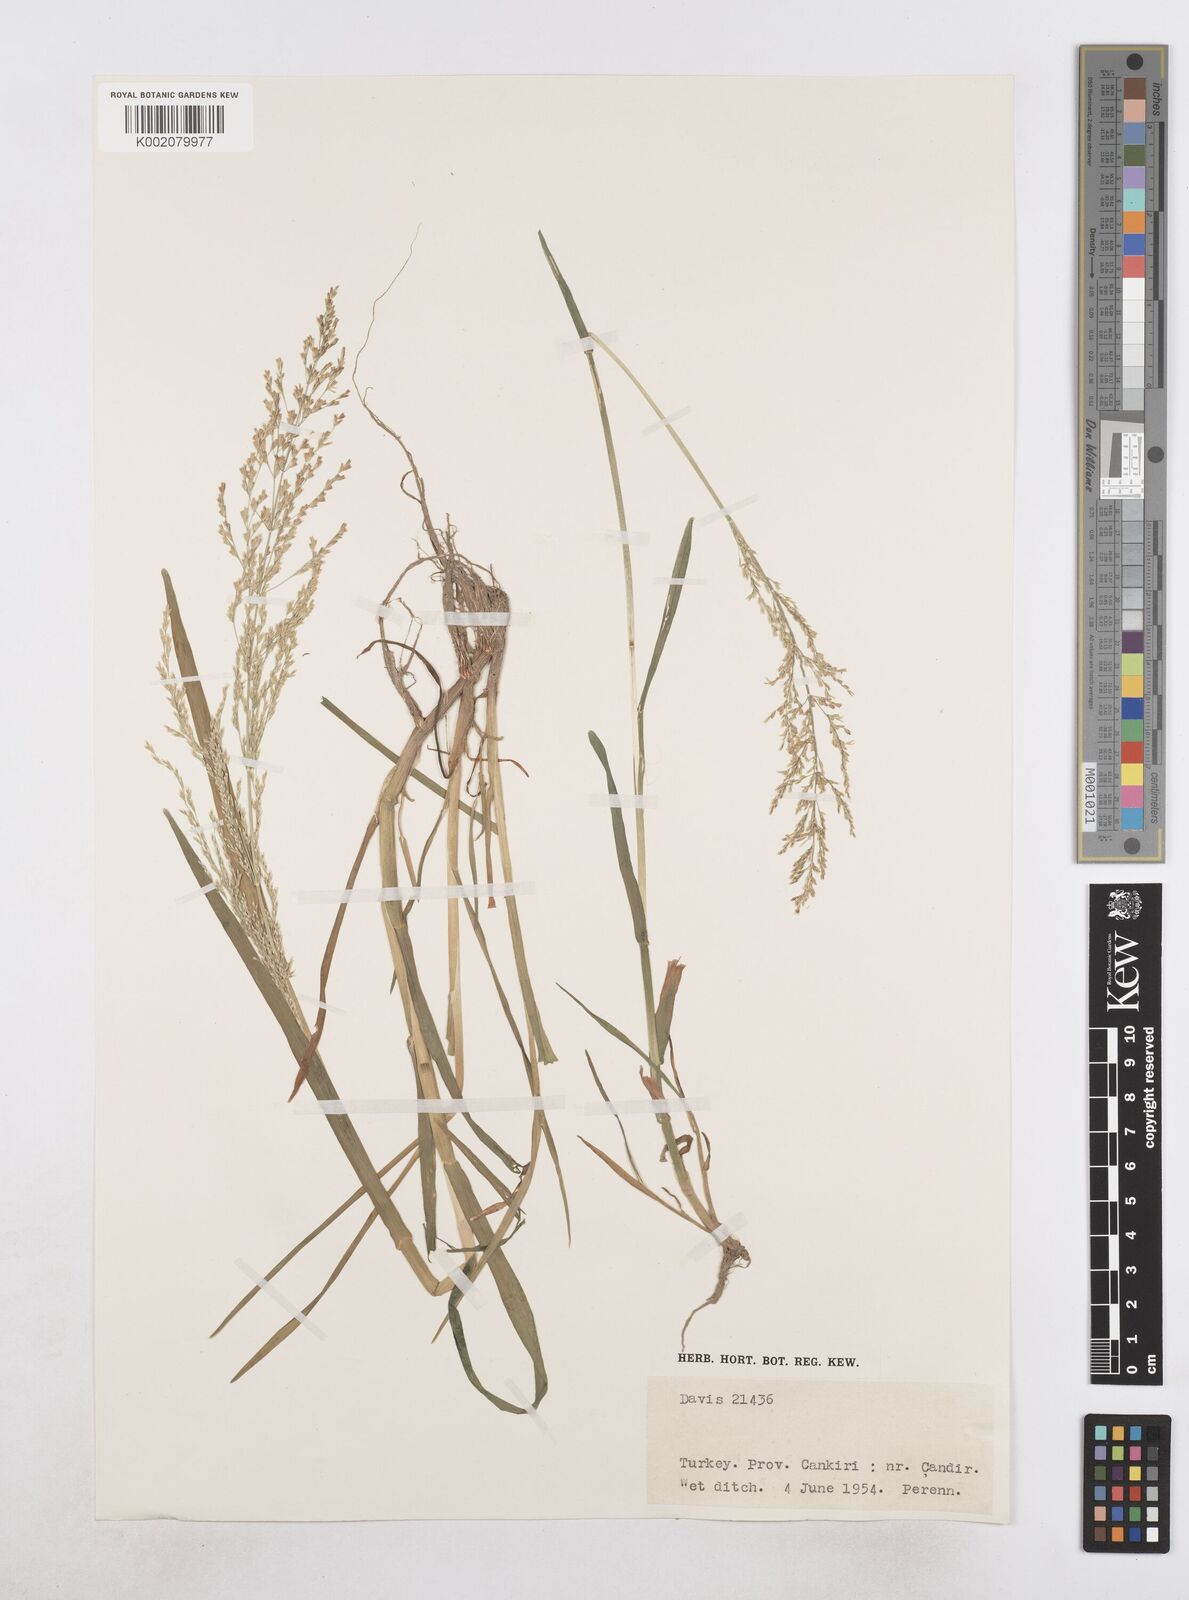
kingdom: Plantae
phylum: Tracheophyta
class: Liliopsida
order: Poales
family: Poaceae
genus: Catabrosa
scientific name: Catabrosa aquatica
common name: Whorl-grass
